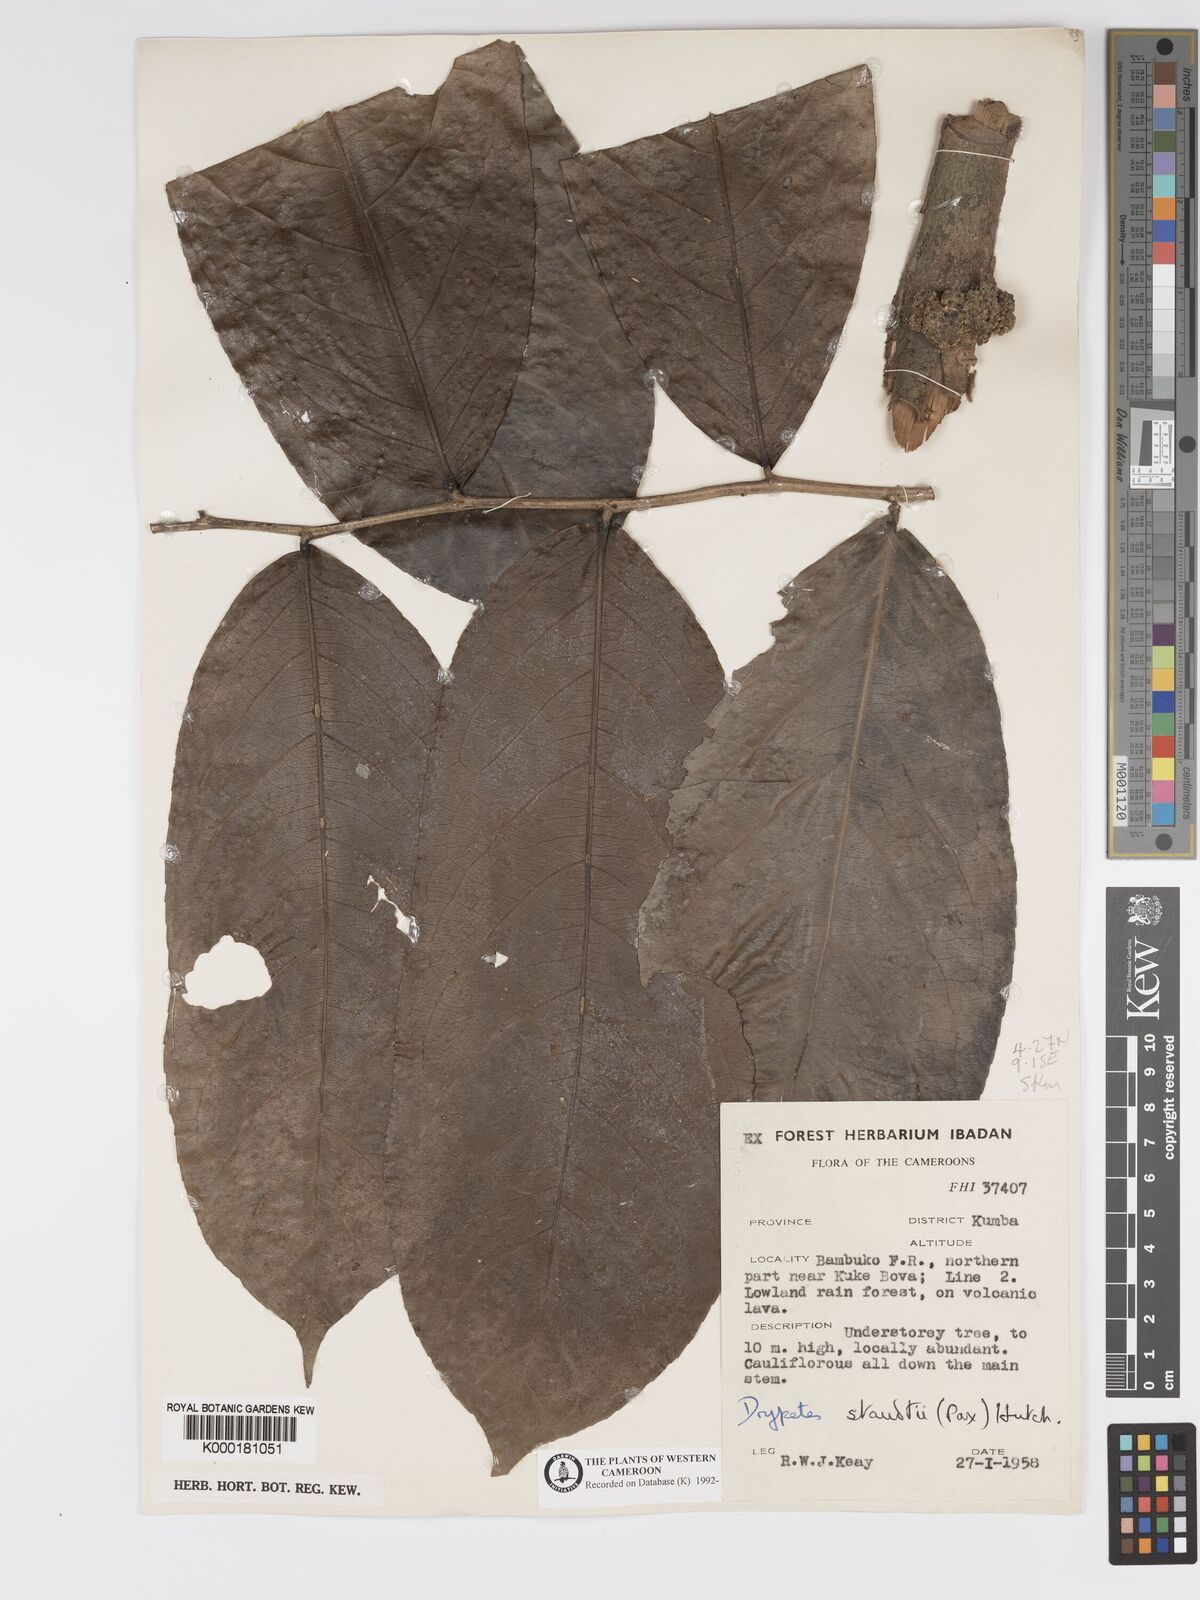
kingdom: Plantae
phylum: Tracheophyta
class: Magnoliopsida
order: Malpighiales
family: Putranjivaceae
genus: Drypetes
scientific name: Drypetes staudtii
